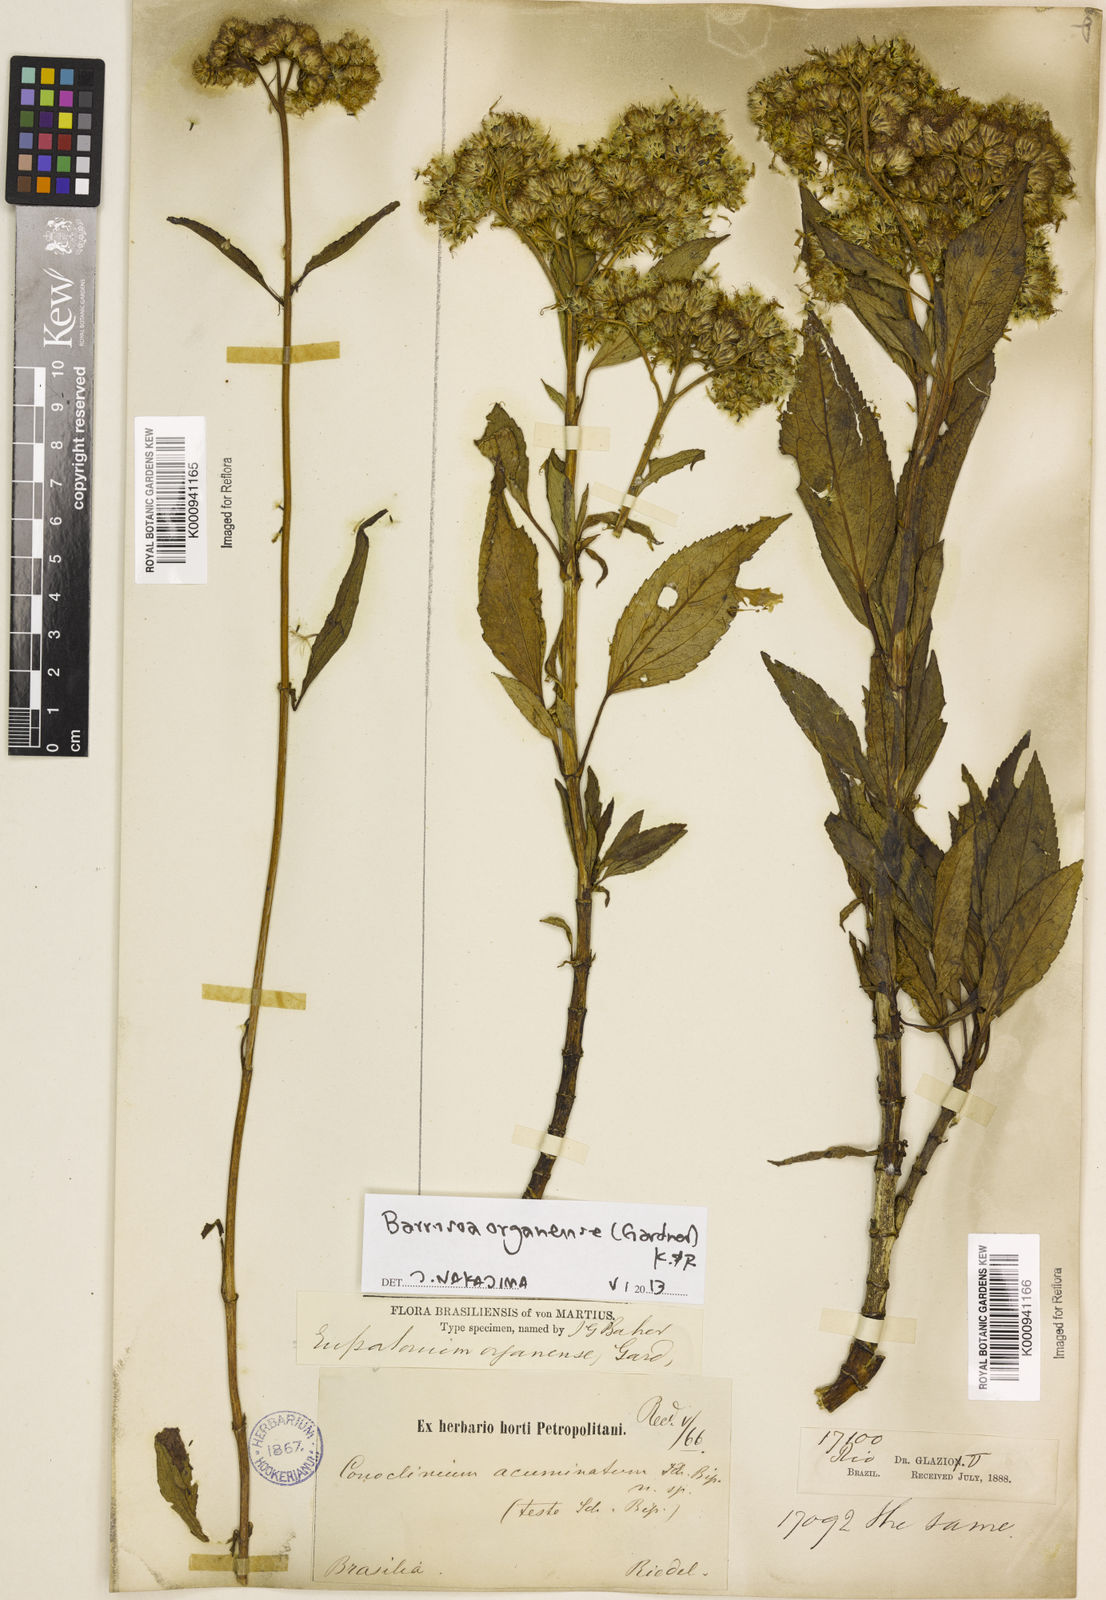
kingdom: Plantae
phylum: Tracheophyta
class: Magnoliopsida
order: Asterales
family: Asteraceae
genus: Barrosoa
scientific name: Barrosoa
